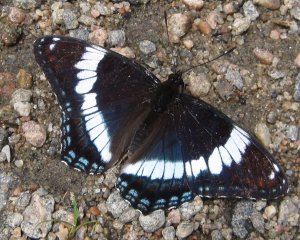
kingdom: Animalia
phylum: Arthropoda
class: Insecta
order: Lepidoptera
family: Nymphalidae
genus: Limenitis
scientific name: Limenitis arthemis
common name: Red-spotted Admiral
